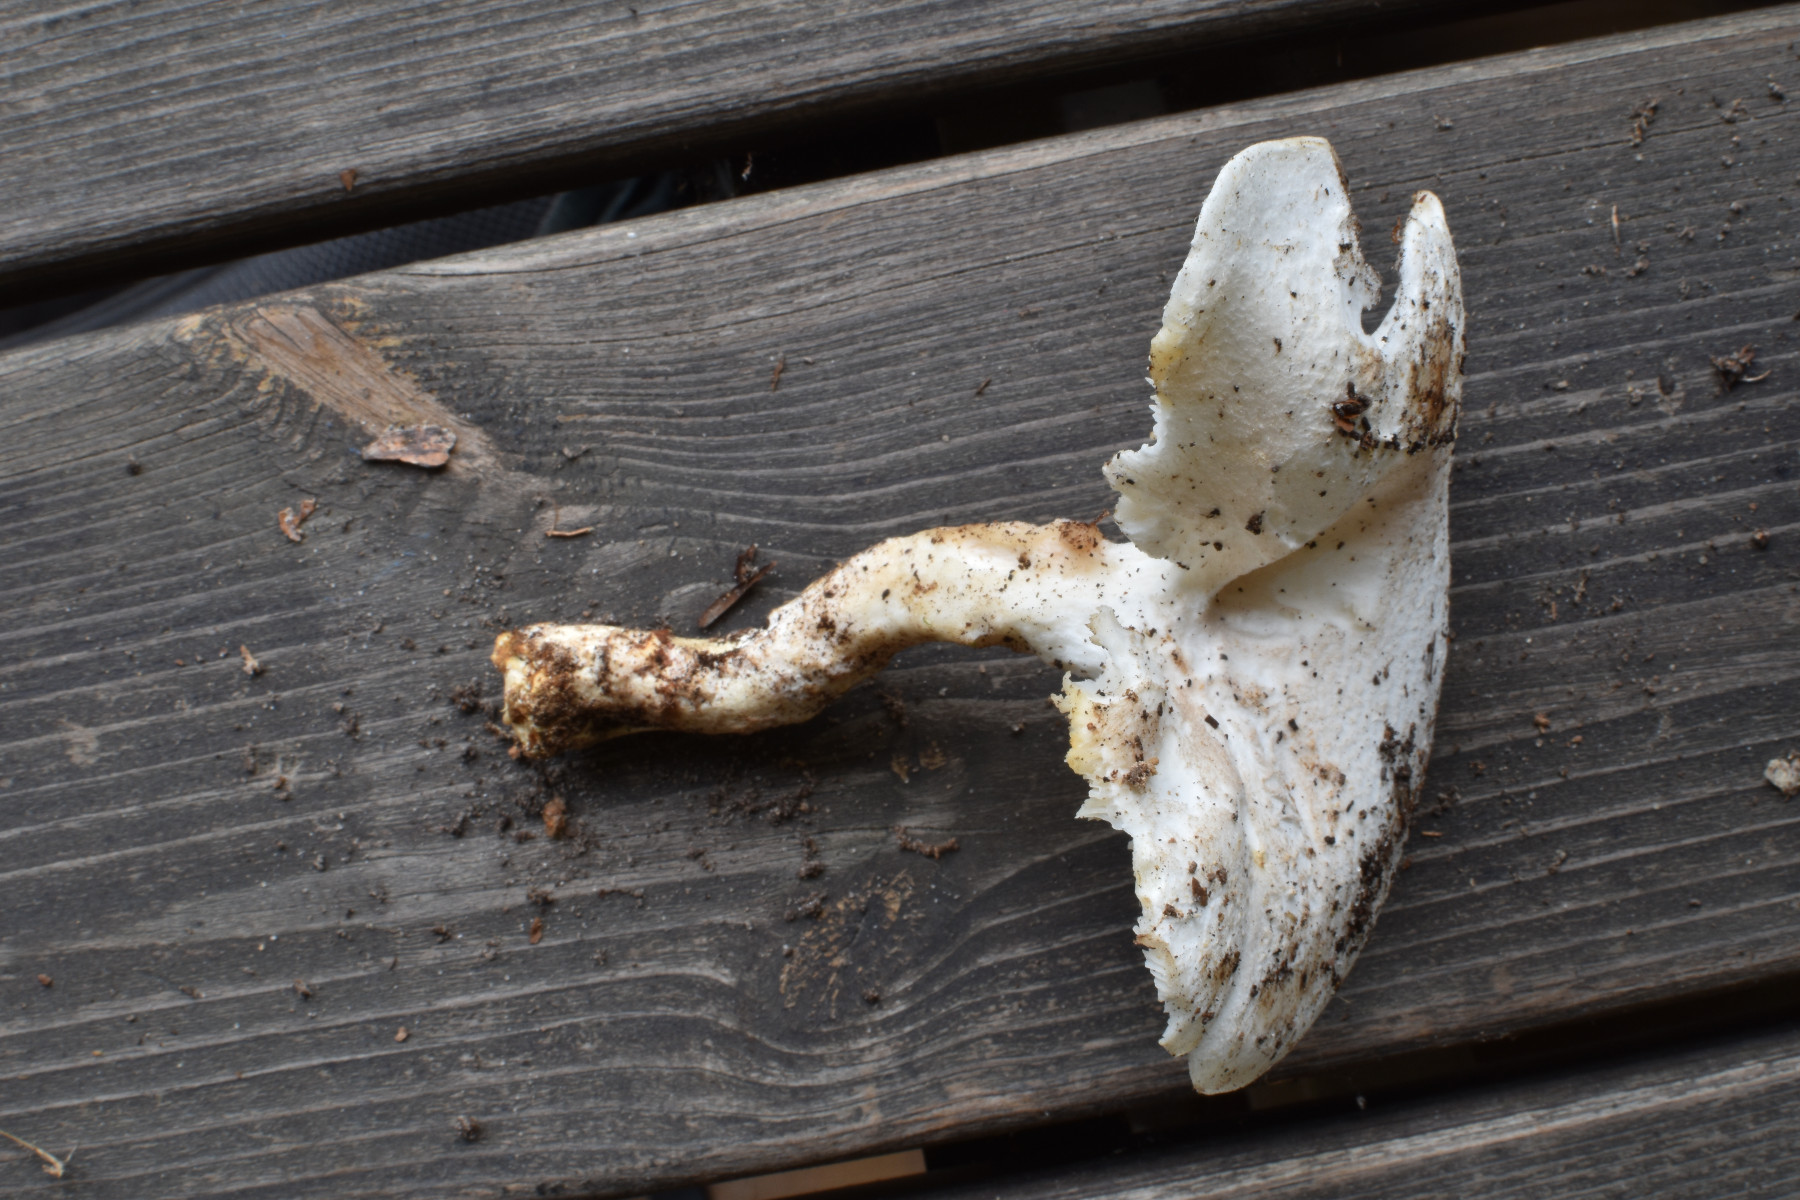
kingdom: Fungi
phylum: Basidiomycota
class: Agaricomycetes
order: Agaricales
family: Pleurotaceae
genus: Pleurotus
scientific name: Pleurotus dryinus
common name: korkagtig østershat
